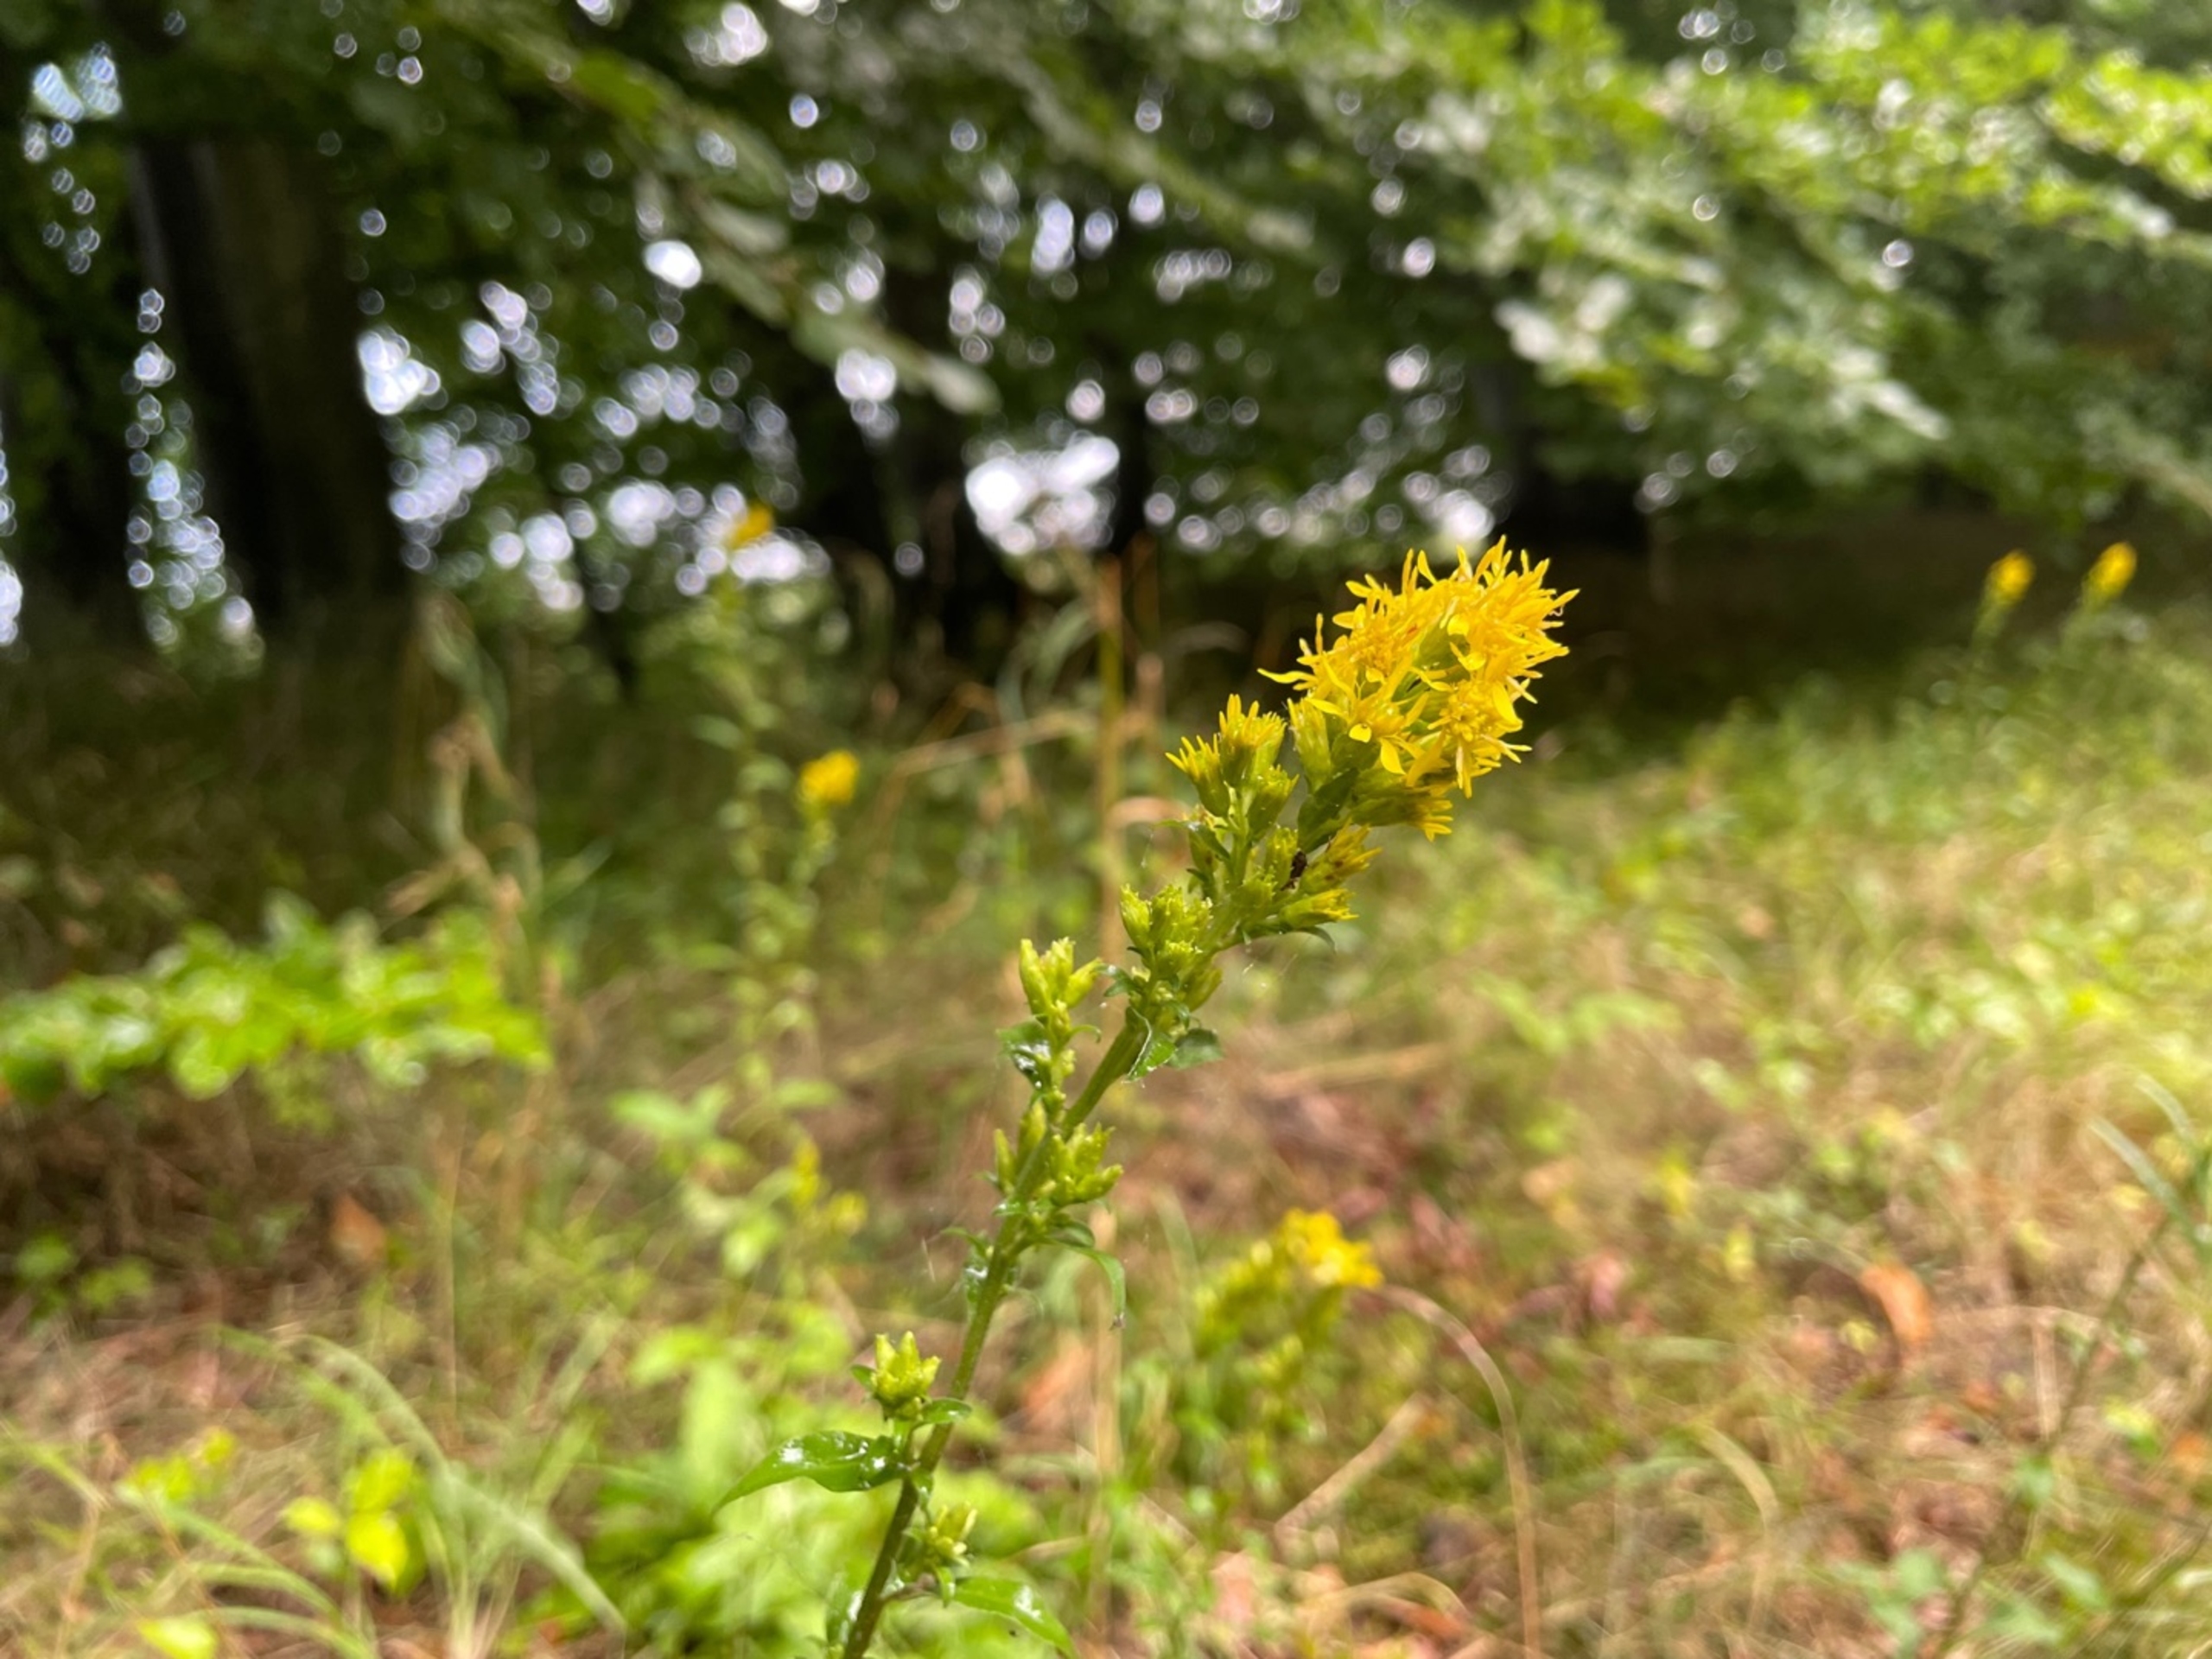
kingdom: Plantae
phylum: Tracheophyta
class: Magnoliopsida
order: Asterales
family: Asteraceae
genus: Solidago
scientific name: Solidago virgaurea
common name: Almindelig gyldenris
